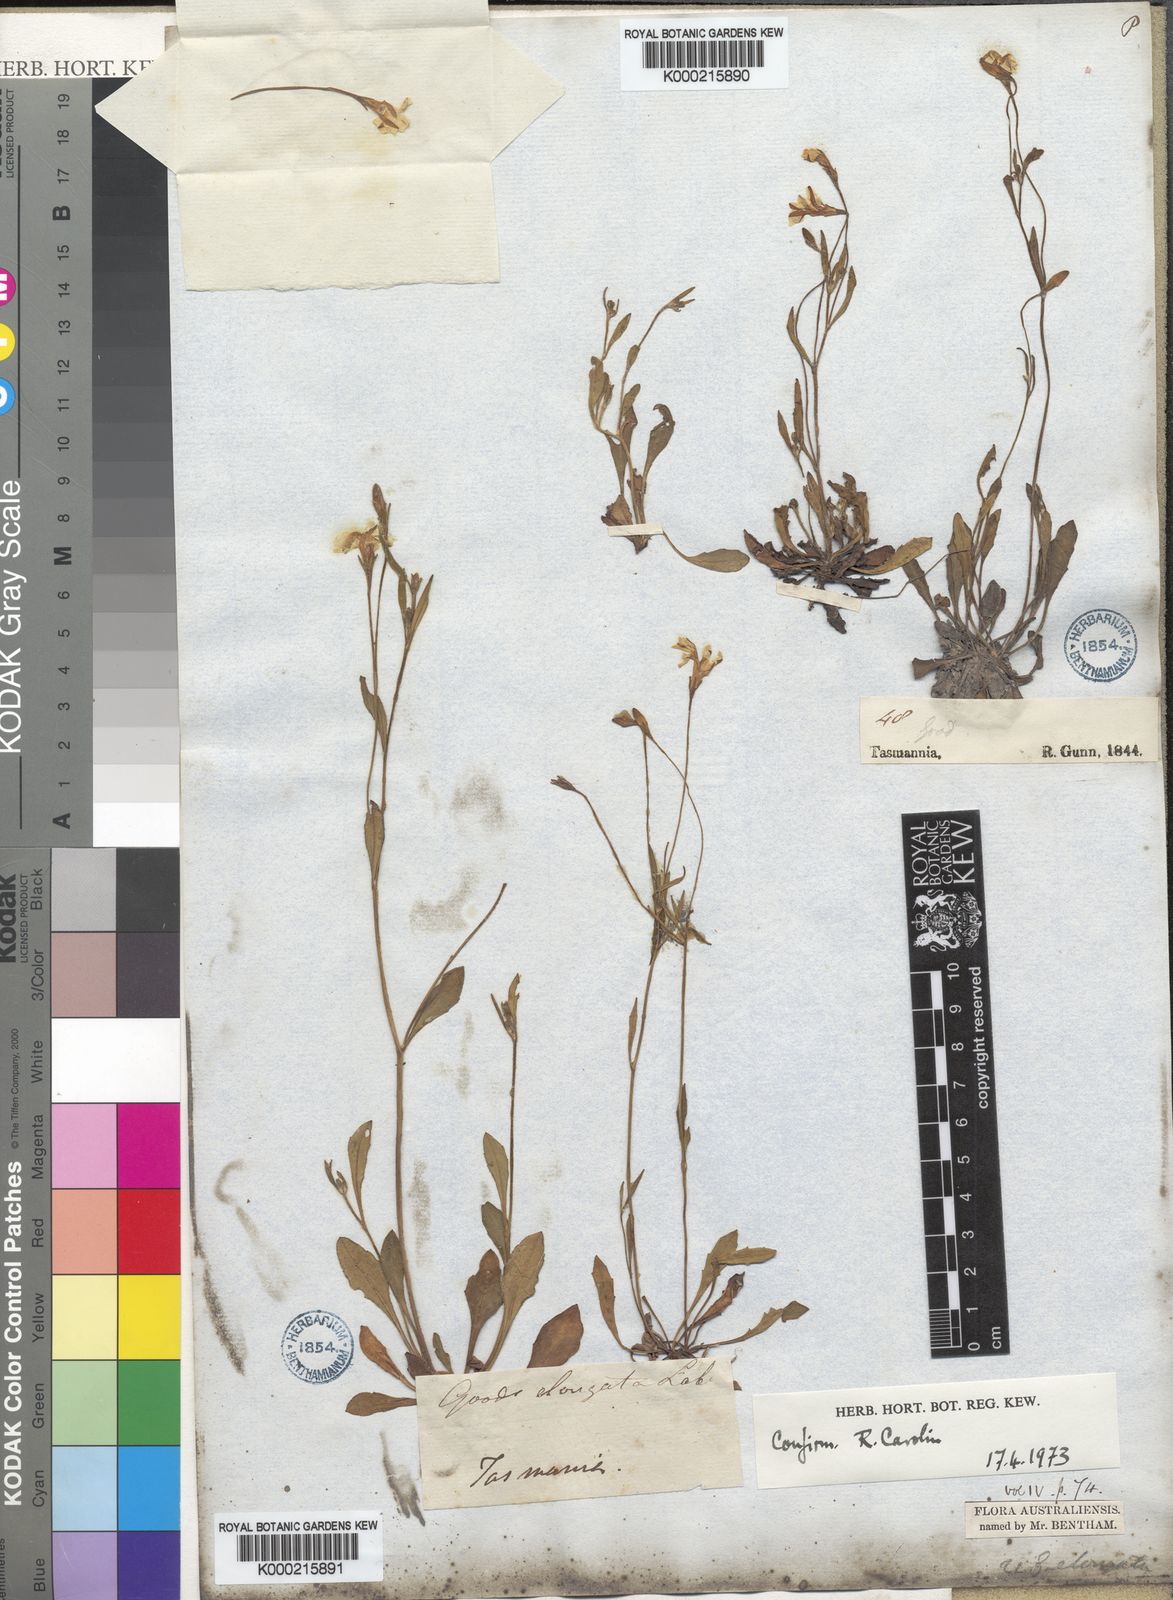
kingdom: Plantae
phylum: Tracheophyta
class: Magnoliopsida
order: Asterales
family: Goodeniaceae
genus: Goodenia
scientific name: Goodenia elongata
